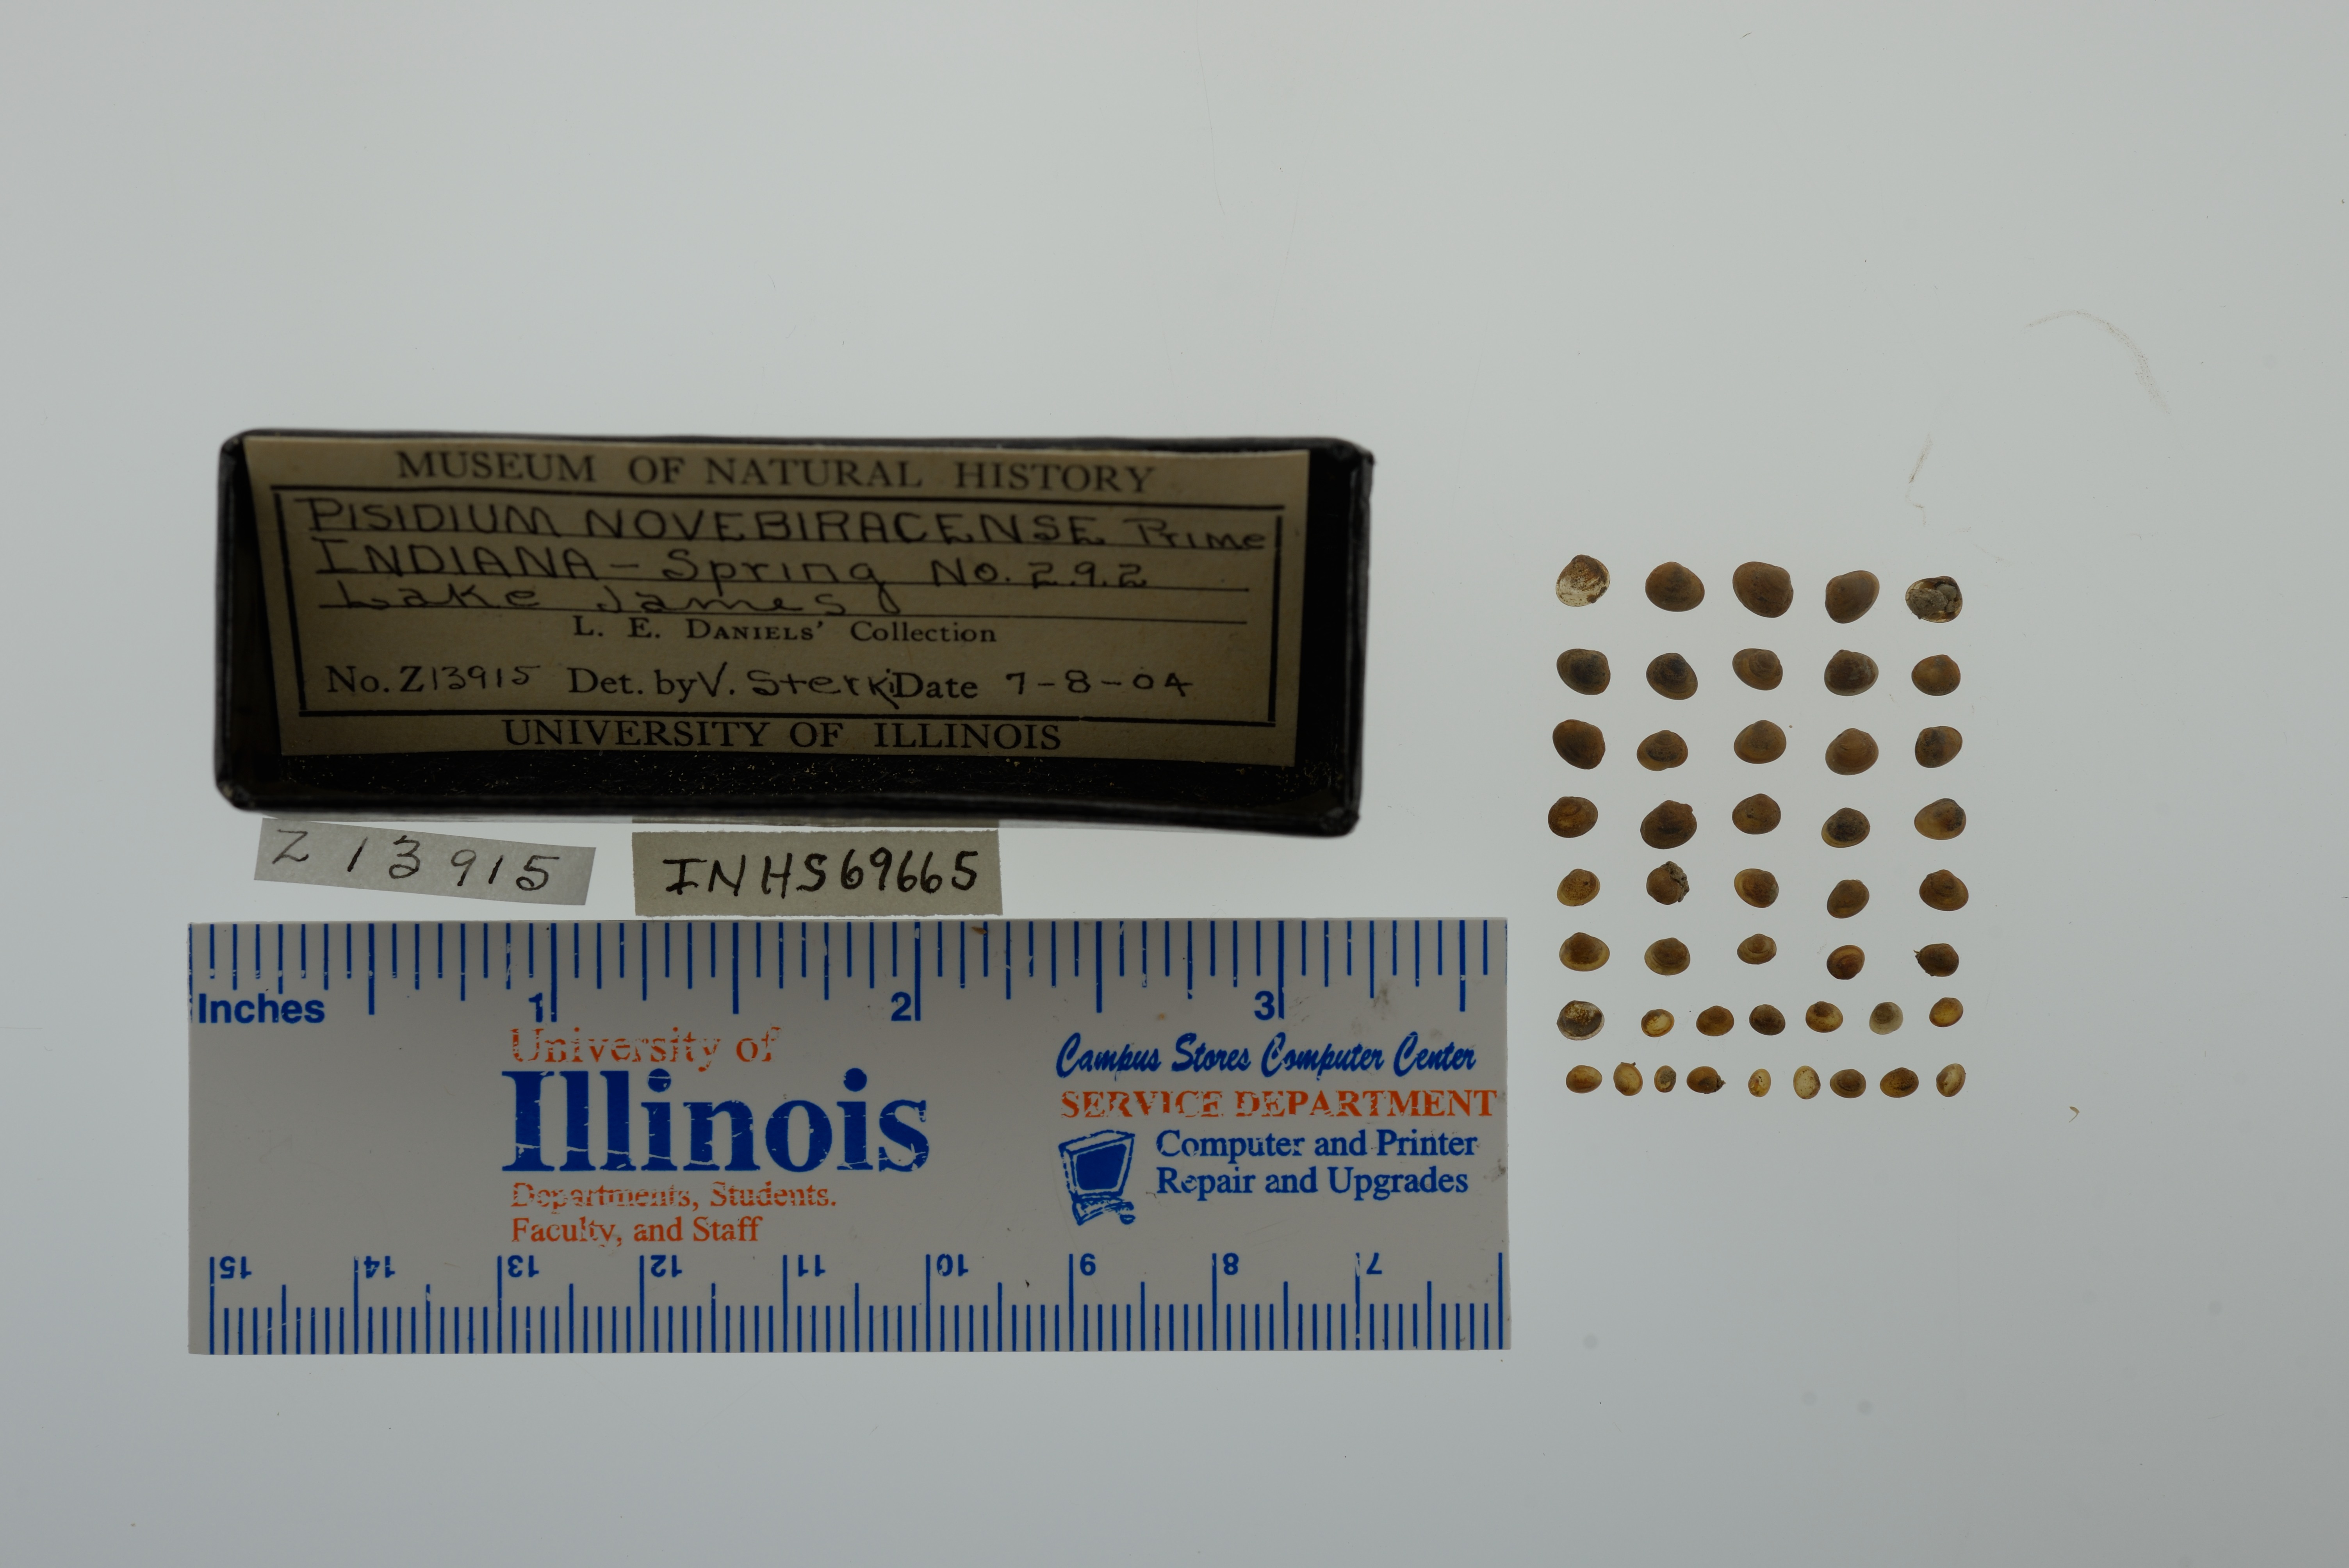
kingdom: Animalia
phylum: Mollusca
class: Bivalvia
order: Sphaeriida
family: Sphaeriidae
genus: Euglesa
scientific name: Euglesa casertana
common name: Caserta pea mussel
